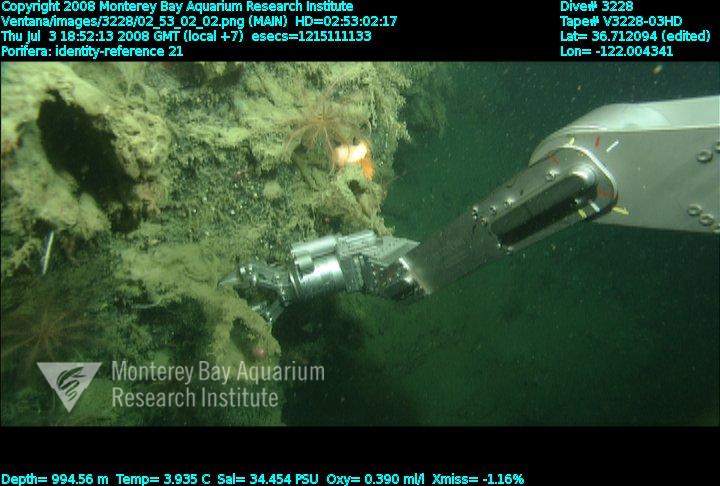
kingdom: Animalia
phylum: Porifera
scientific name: Porifera
